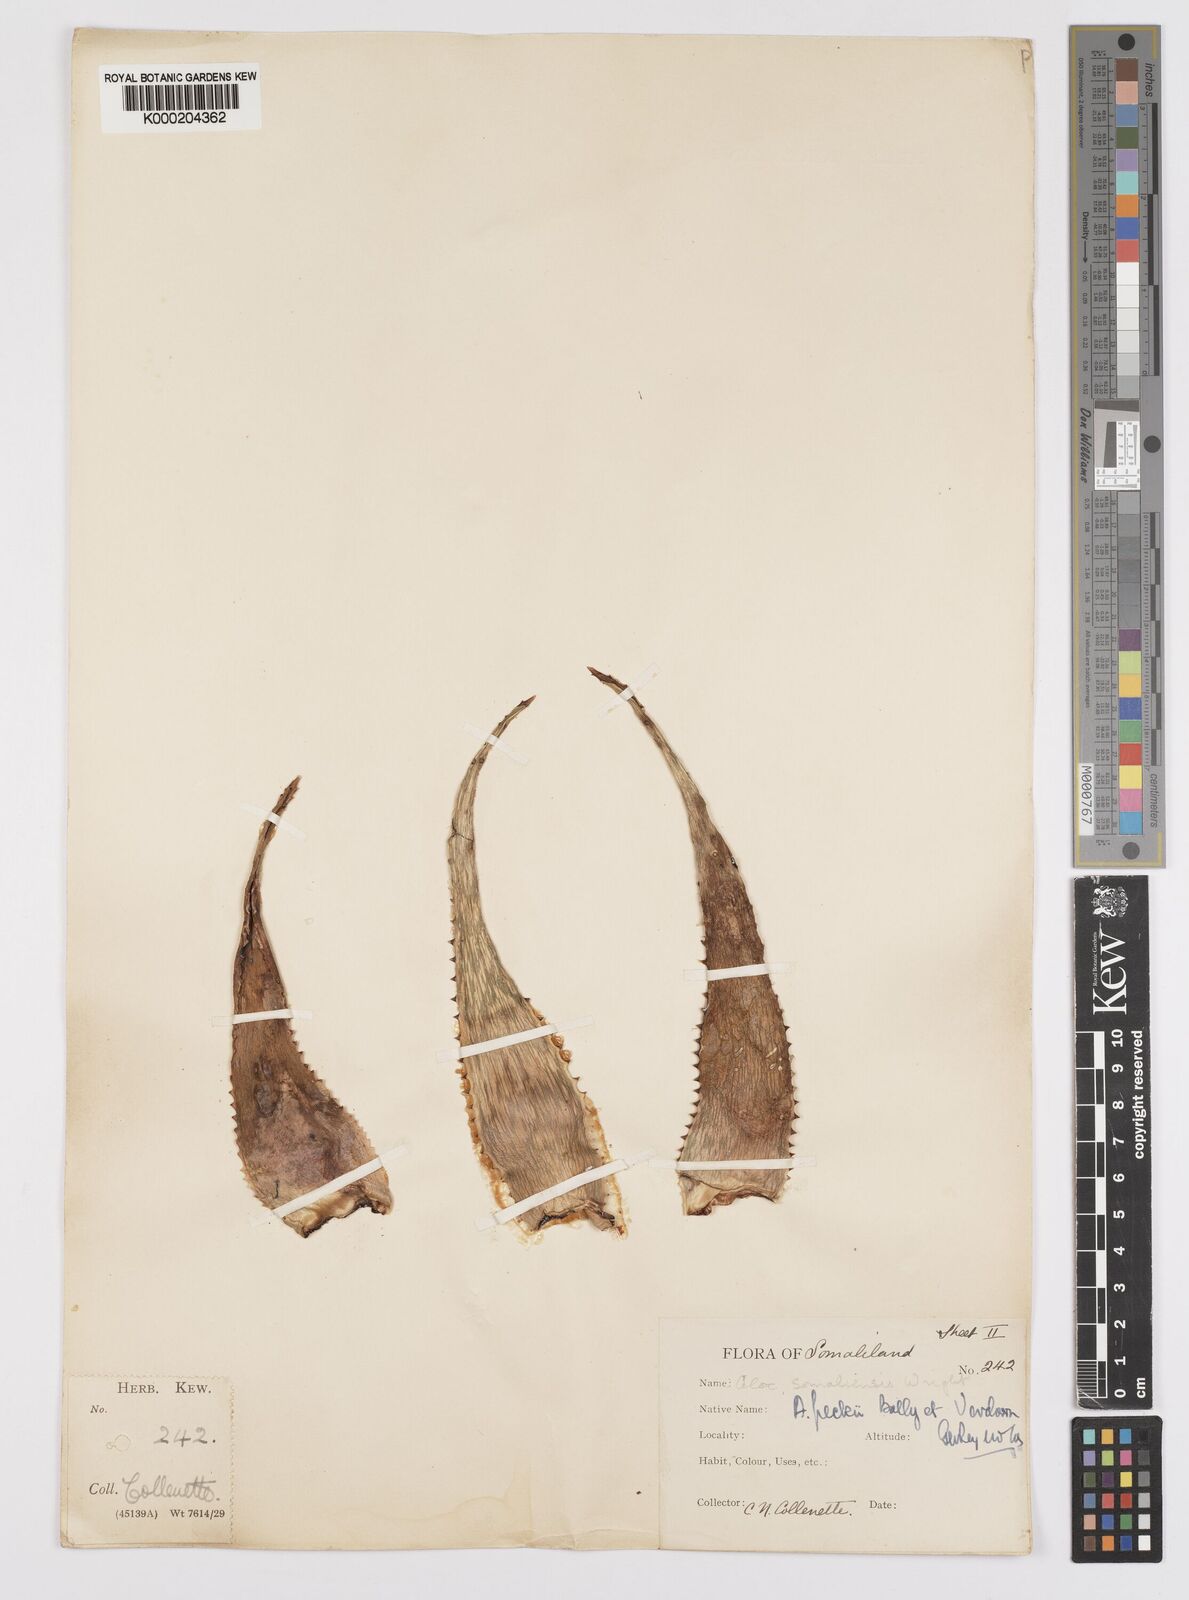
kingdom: Plantae
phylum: Tracheophyta
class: Liliopsida
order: Asparagales
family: Asphodelaceae
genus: Aloe
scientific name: Aloe peckii
